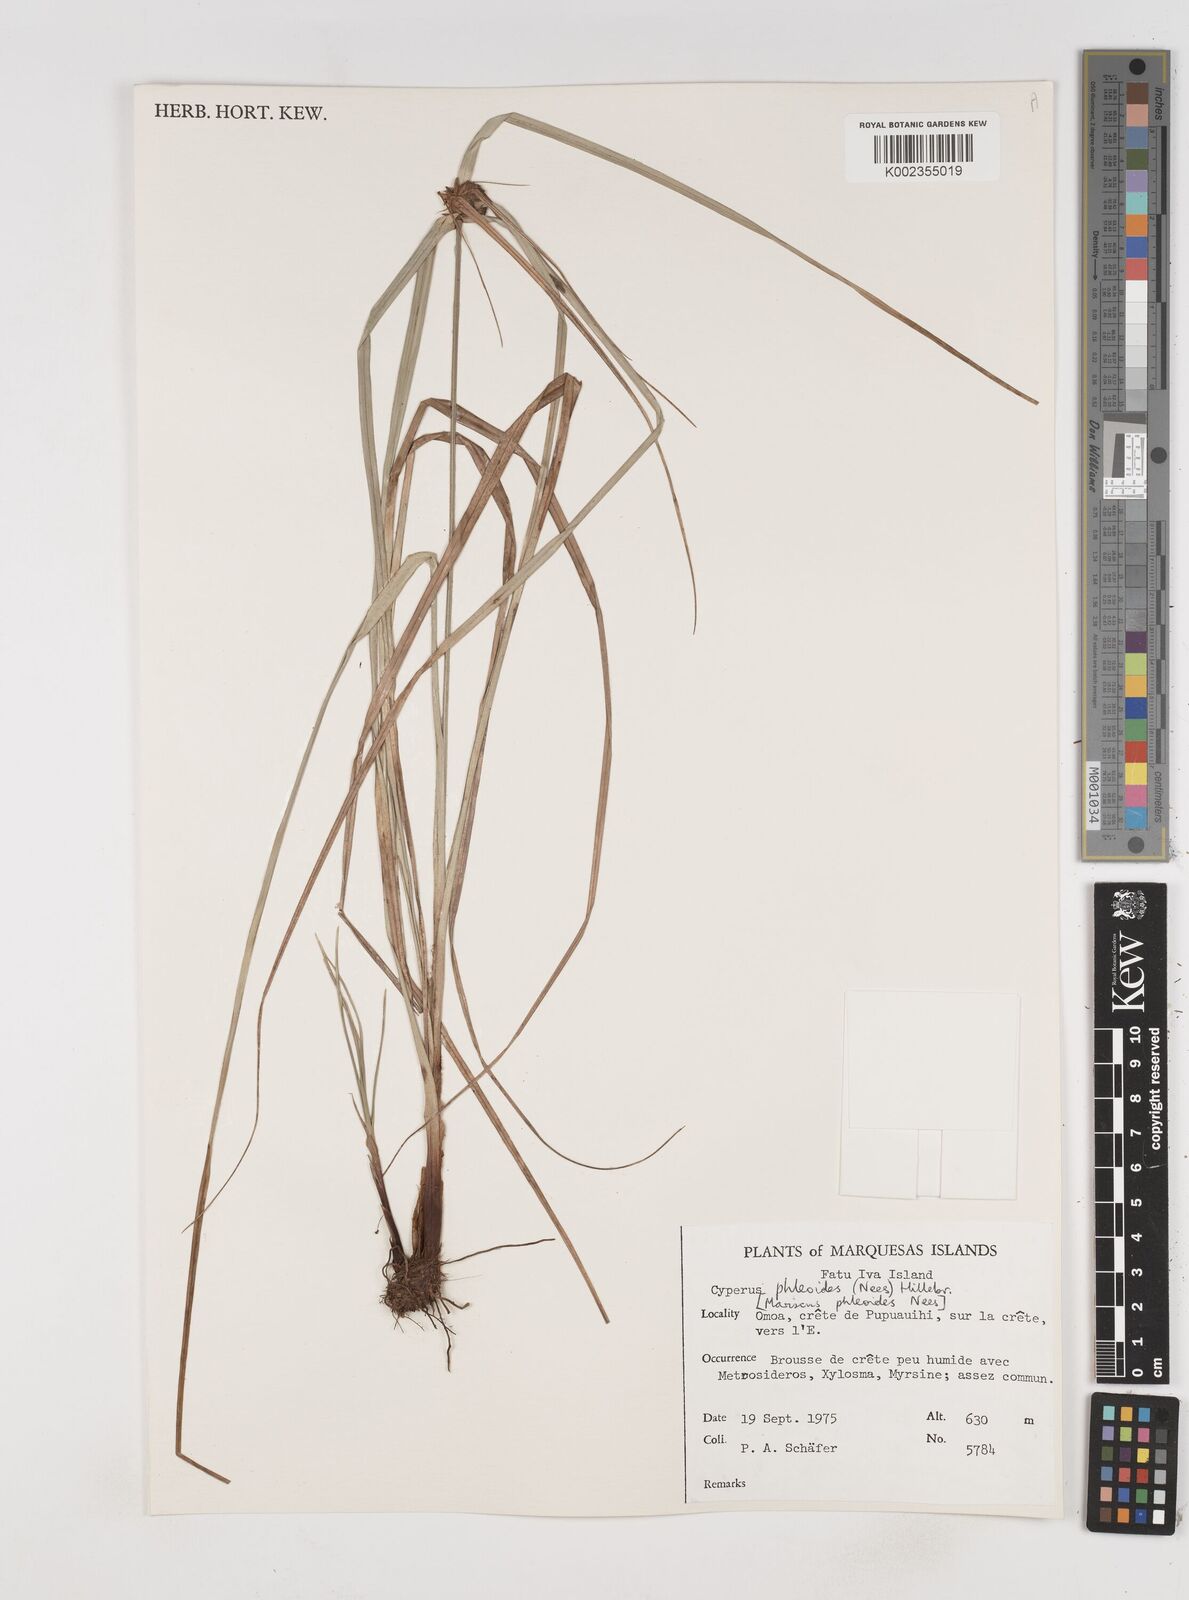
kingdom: Plantae
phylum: Tracheophyta
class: Liliopsida
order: Poales
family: Cyperaceae
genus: Cyperus
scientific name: Cyperus phleoides
